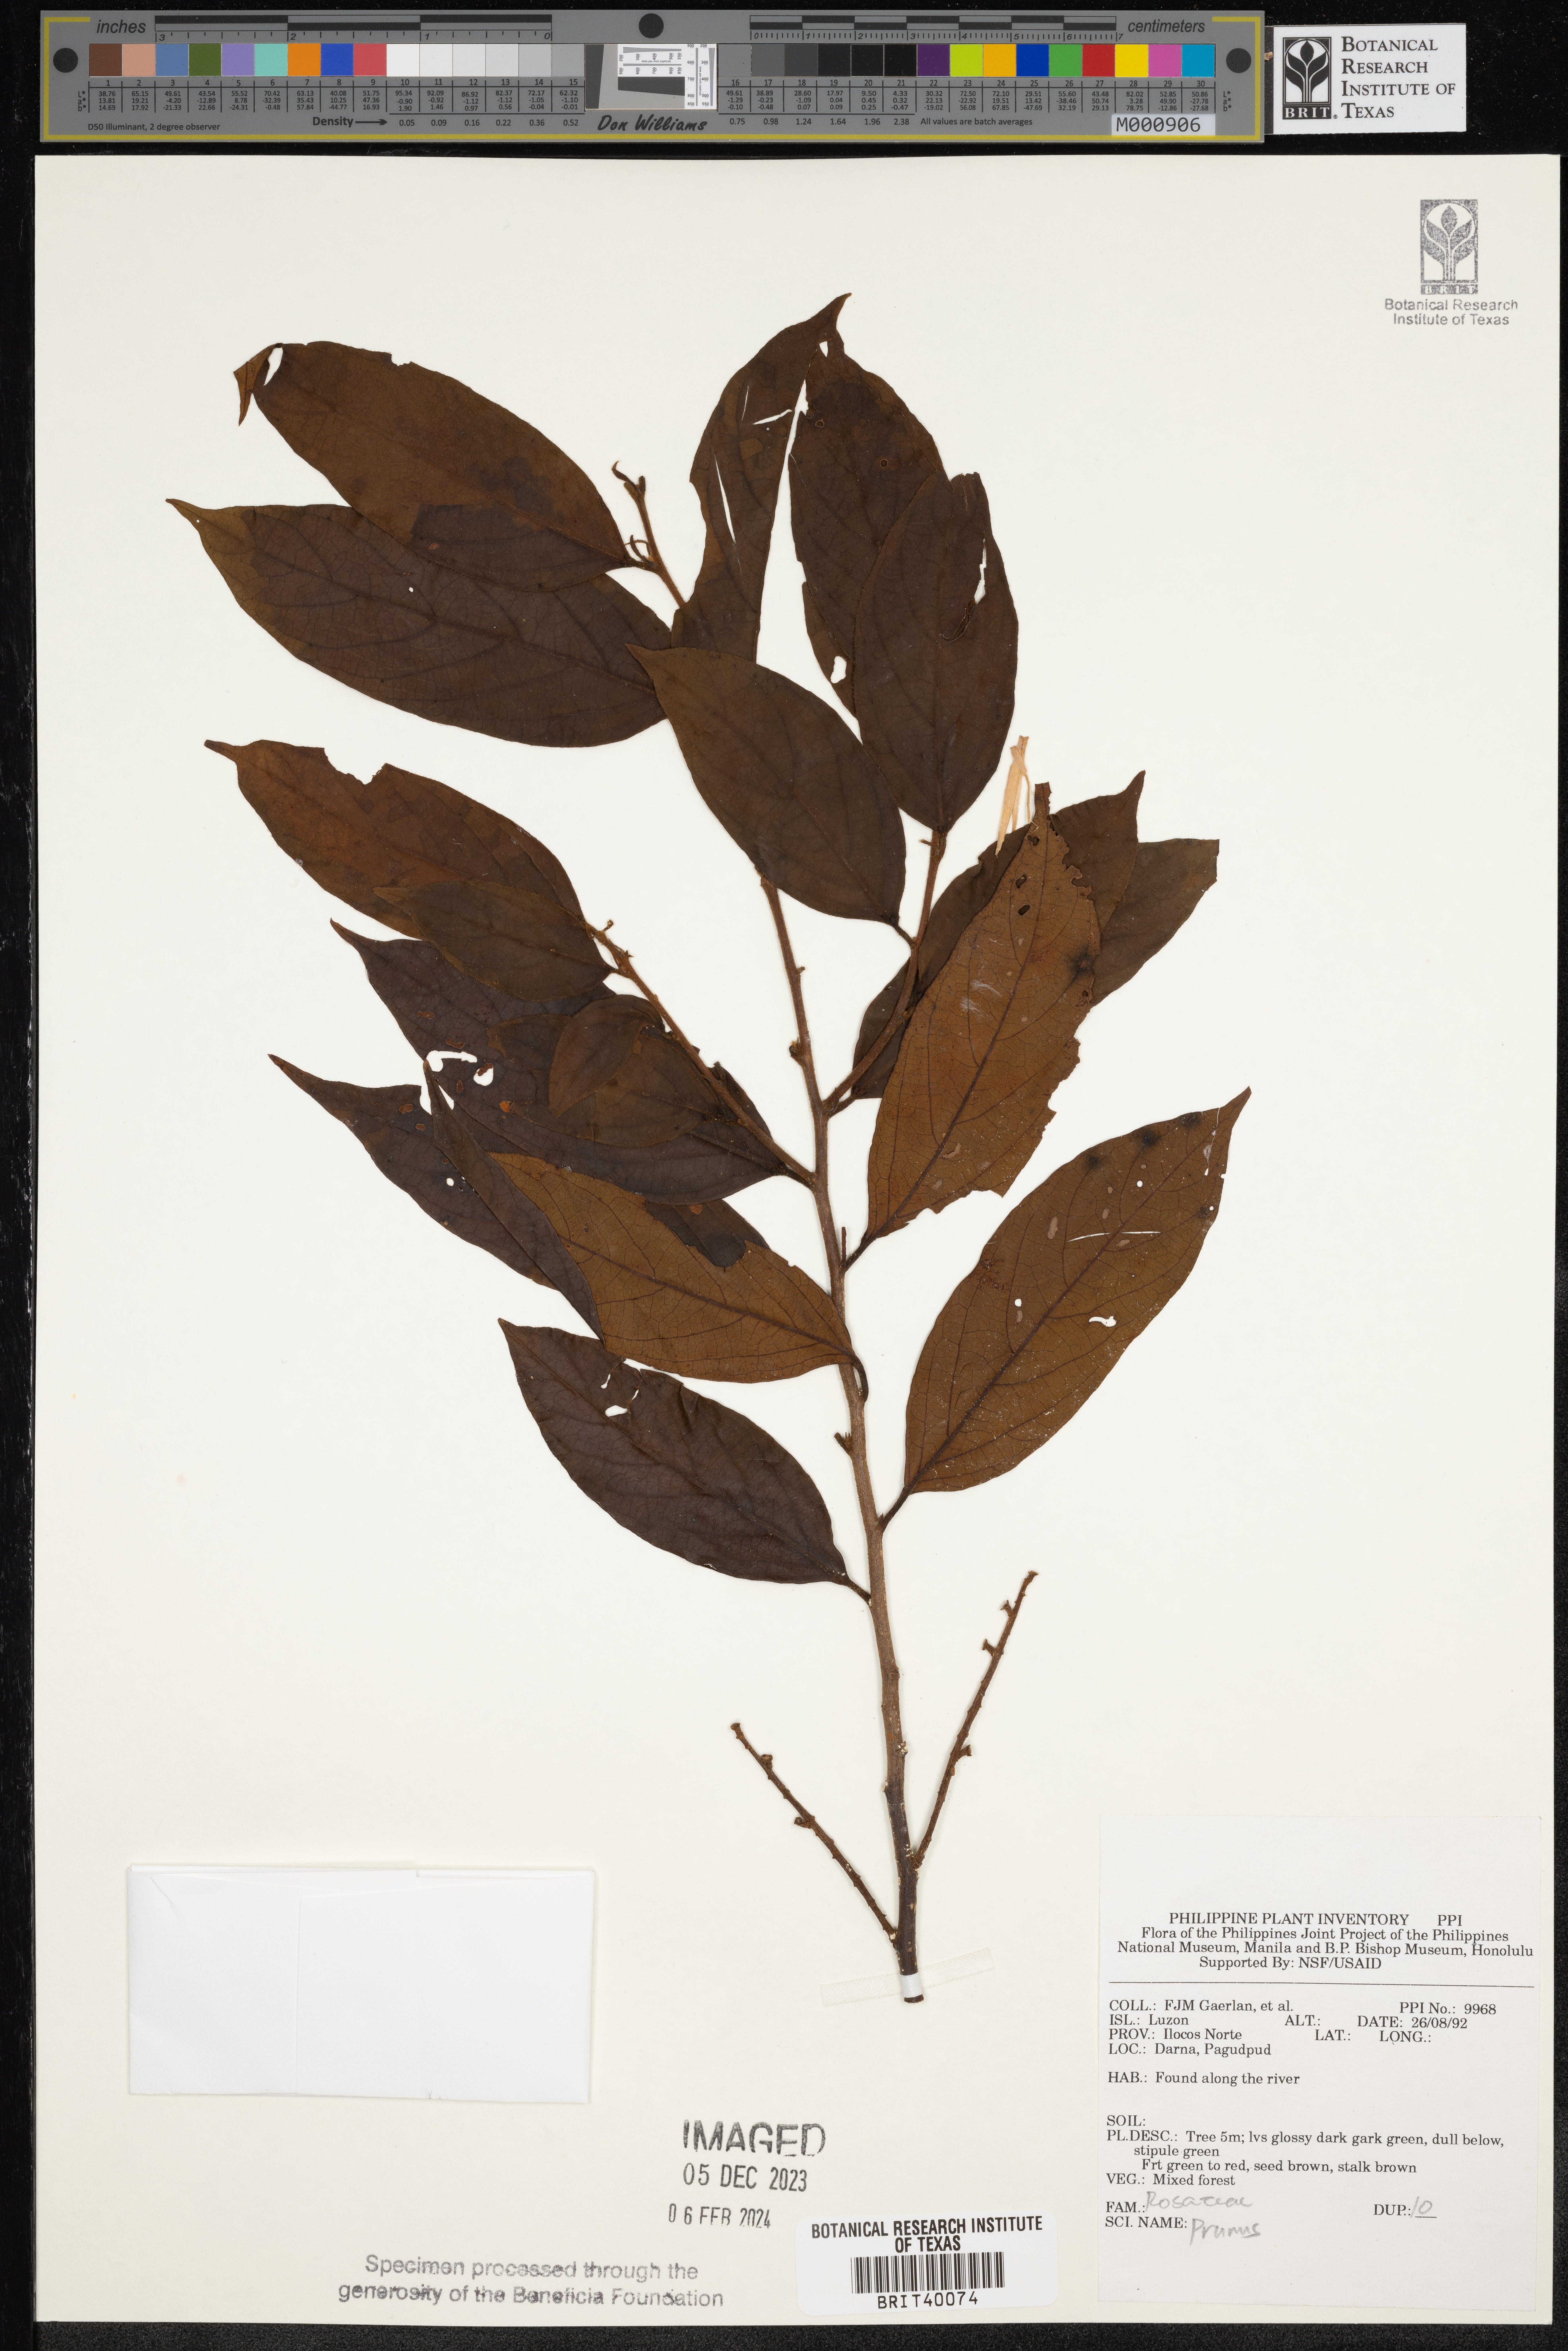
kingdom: Plantae
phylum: Tracheophyta
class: Magnoliopsida
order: Rosales
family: Rosaceae
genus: Prunus
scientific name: Prunus
